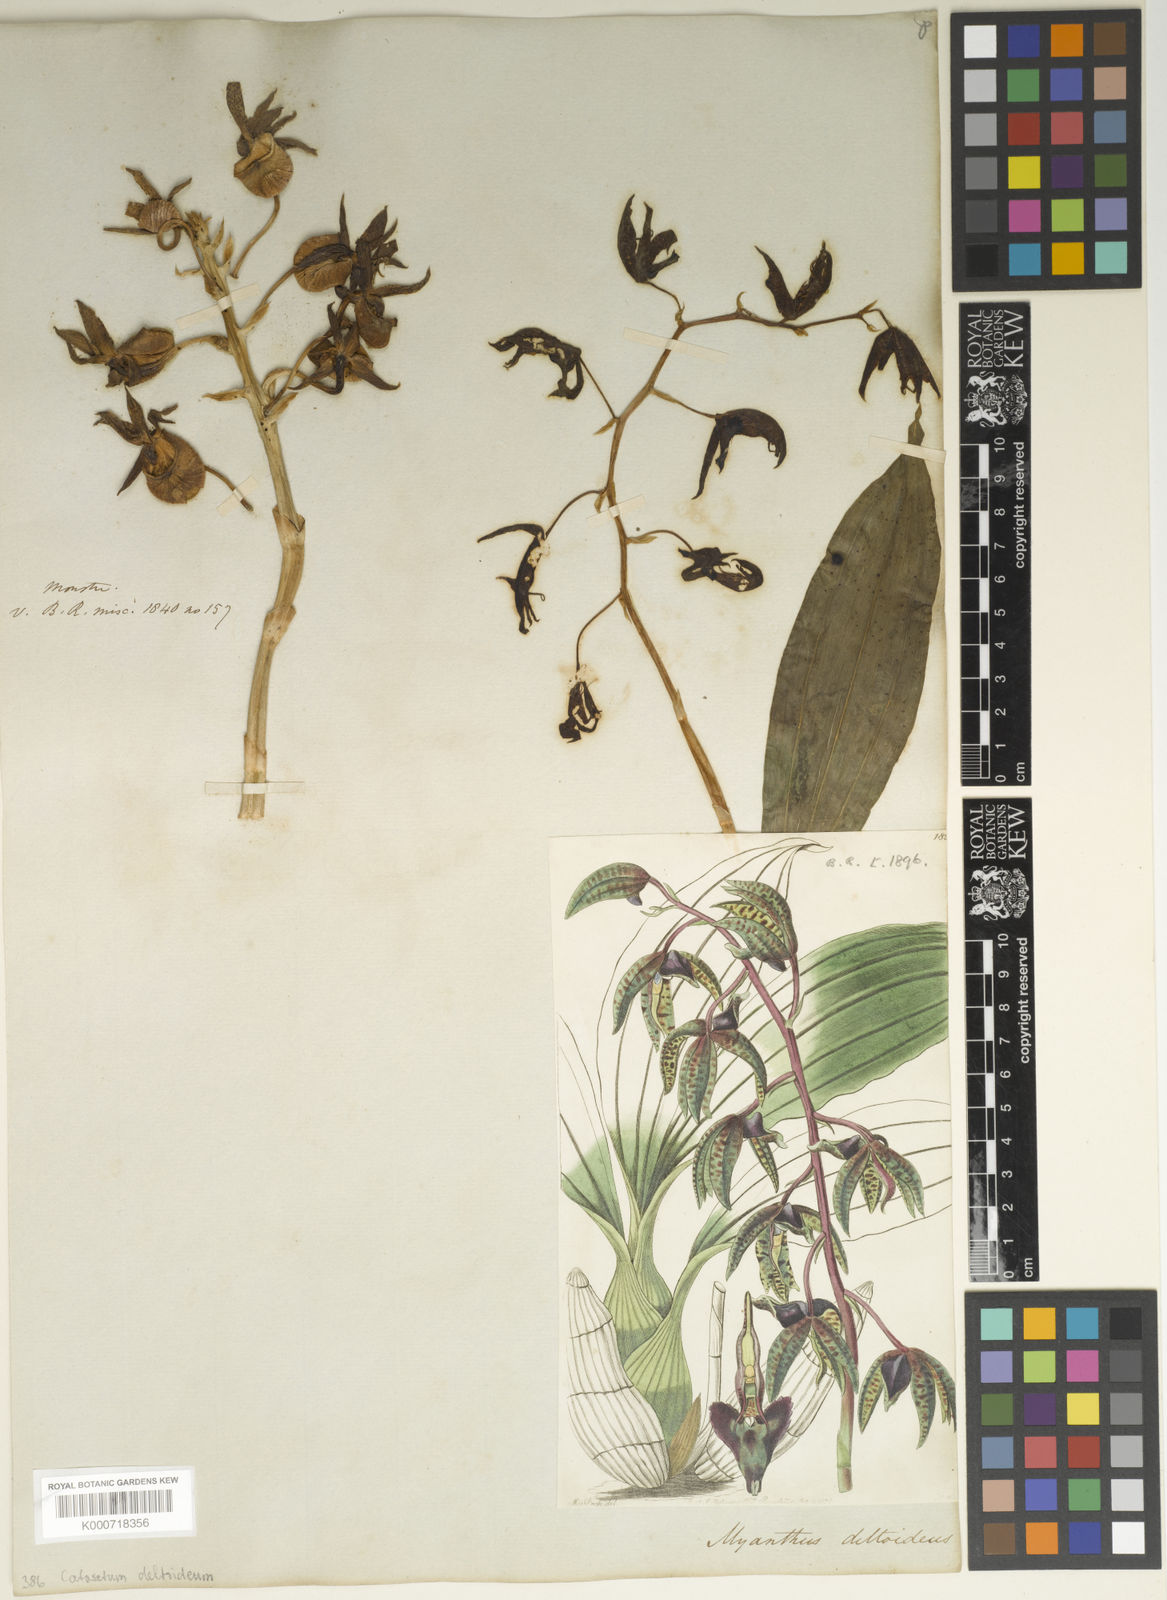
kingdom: Plantae
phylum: Tracheophyta
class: Liliopsida
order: Asparagales
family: Orchidaceae
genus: Catasetum
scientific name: Catasetum deltoideum
